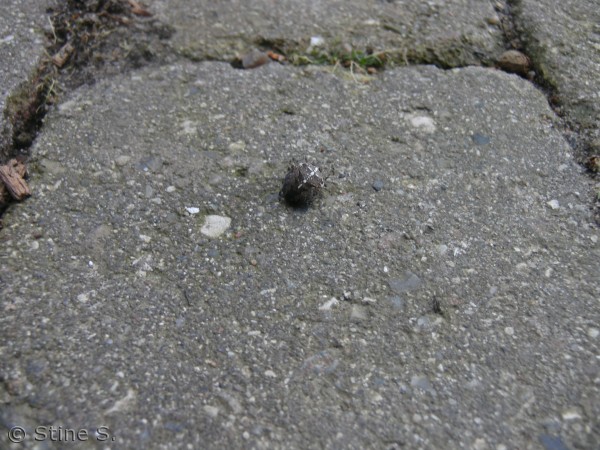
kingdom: Animalia
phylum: Arthropoda
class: Arachnida
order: Araneae
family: Araneidae
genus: Araneus
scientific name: Araneus diadematus
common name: Korsedderkop
